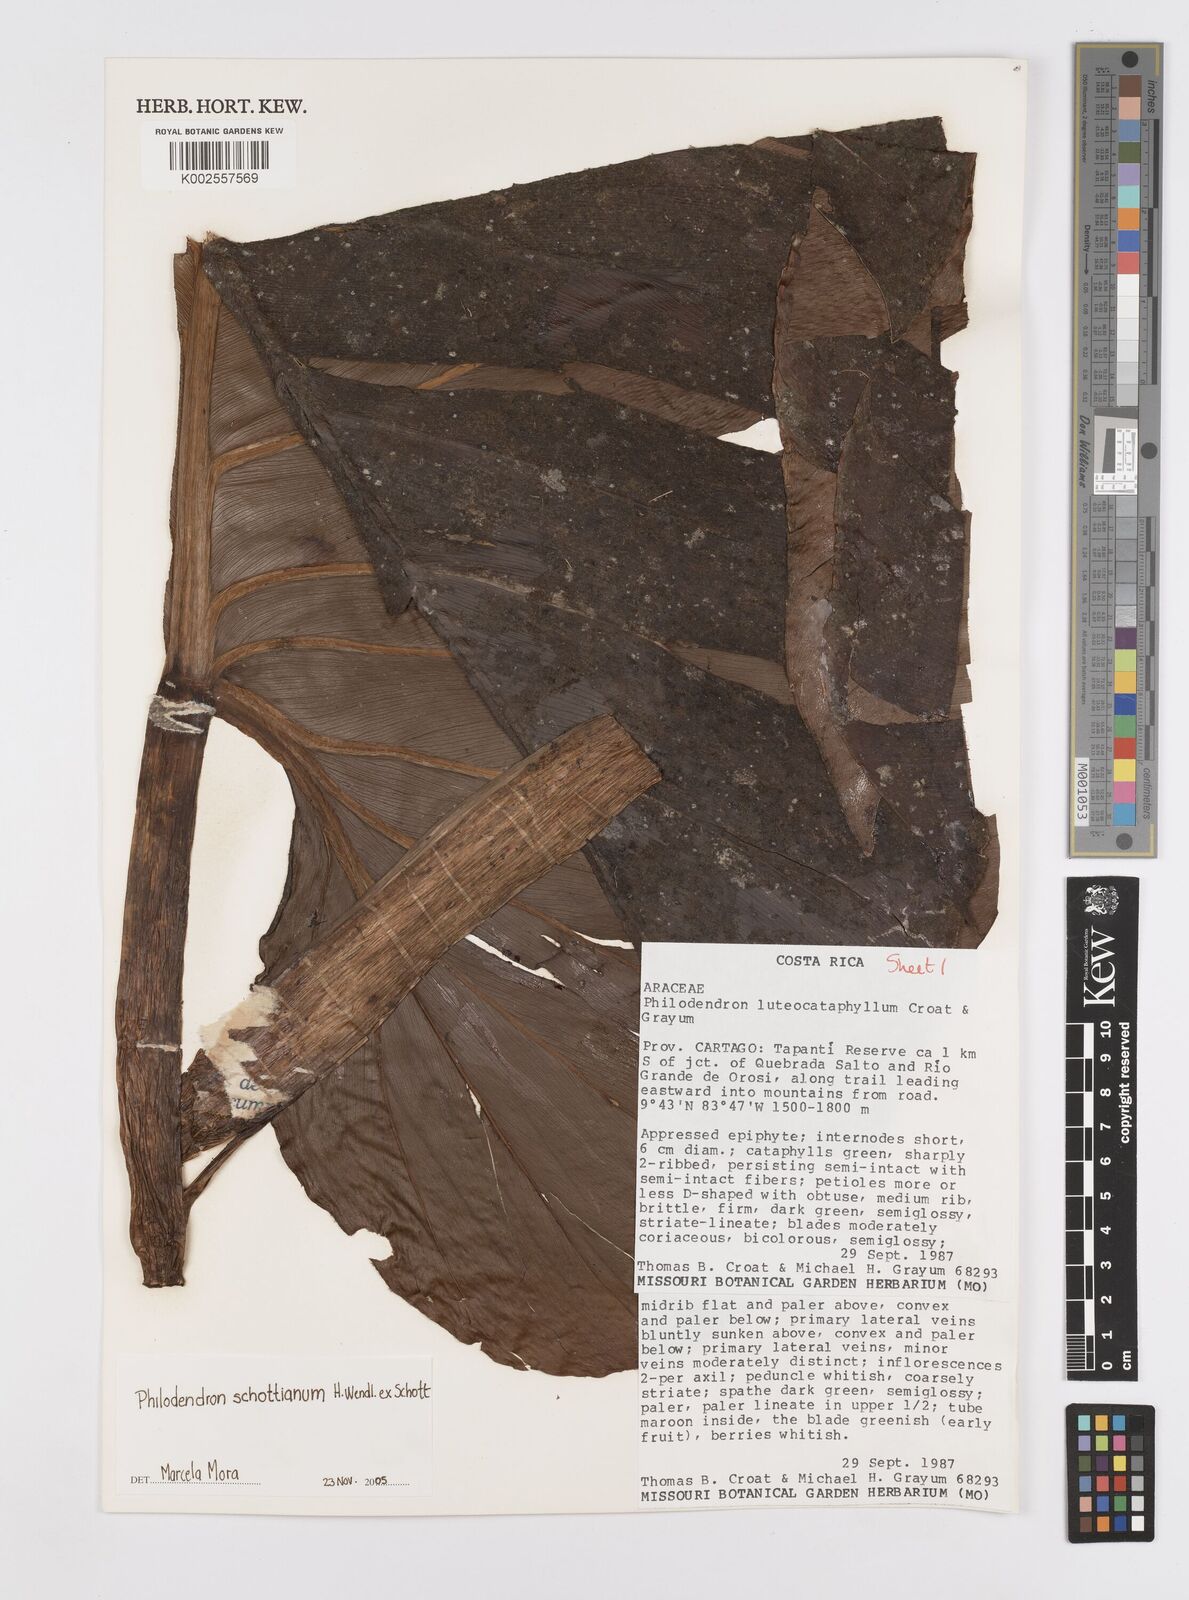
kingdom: Plantae
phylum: Tracheophyta
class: Liliopsida
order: Alismatales
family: Araceae
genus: Philodendron
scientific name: Philodendron schottianum
